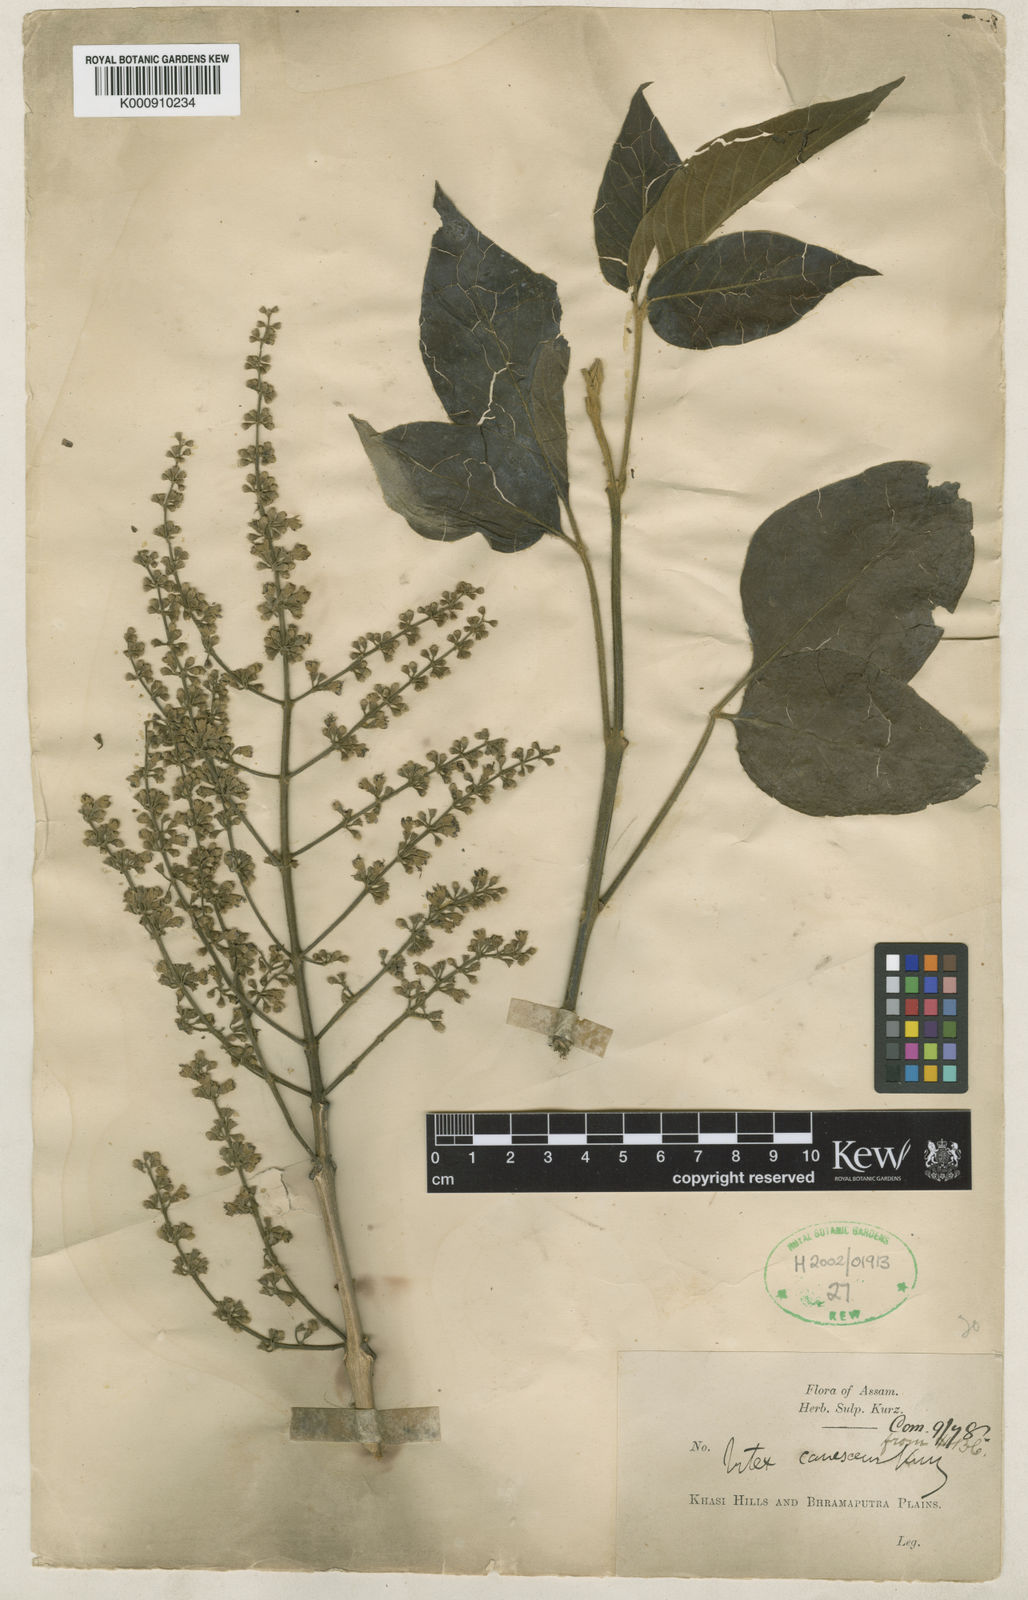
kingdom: Plantae
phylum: Tracheophyta
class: Magnoliopsida
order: Lamiales
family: Lamiaceae
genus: Vitex
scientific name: Vitex canescens
